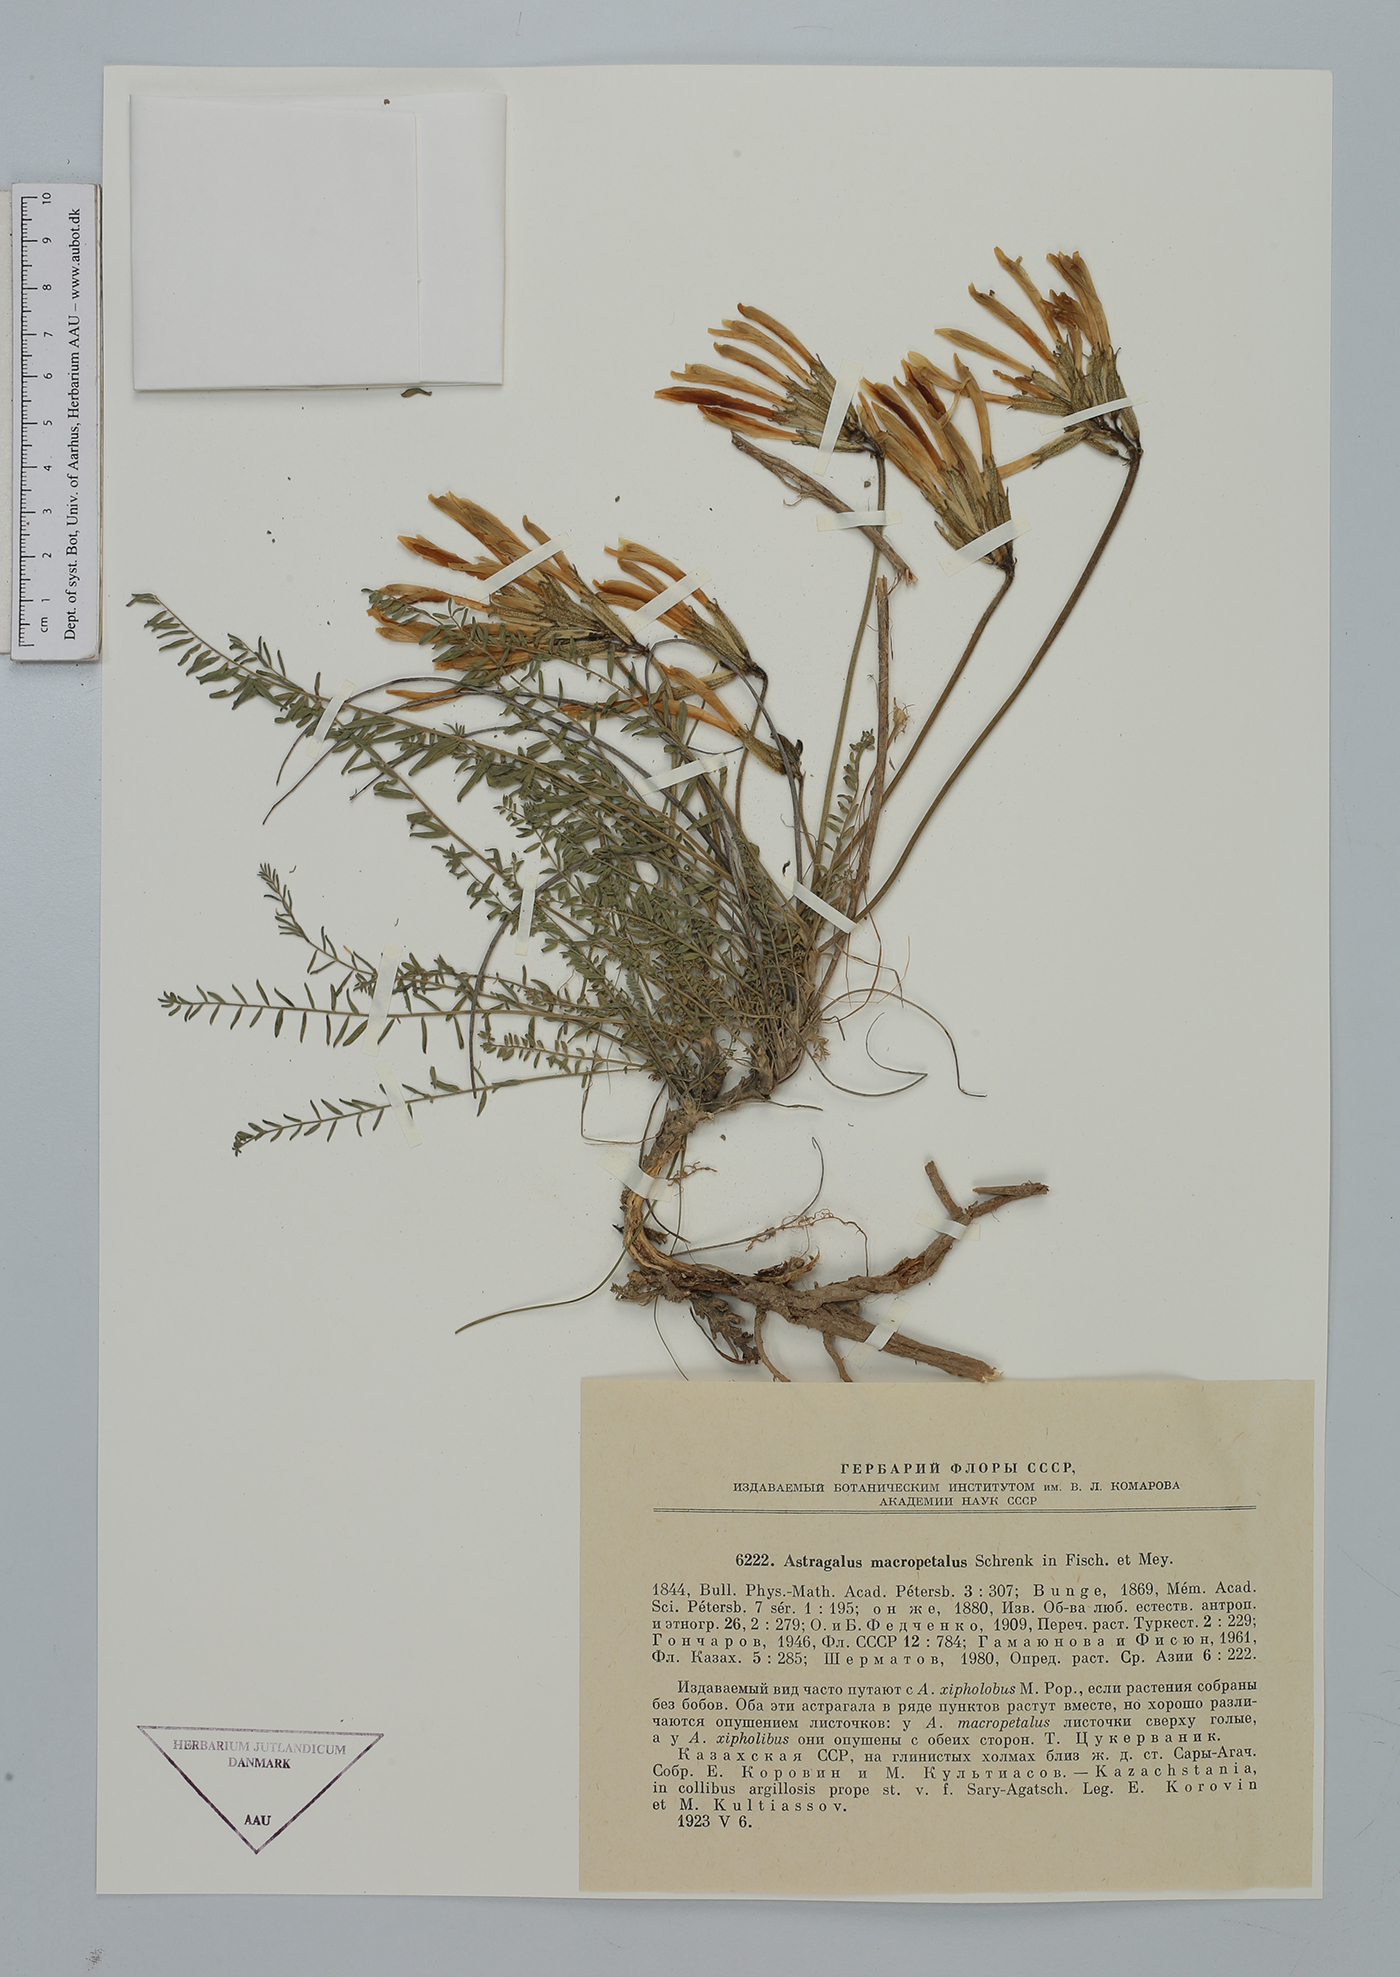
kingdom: Plantae
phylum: Tracheophyta
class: Magnoliopsida
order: Fabales
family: Fabaceae
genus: Astragalus
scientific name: Astragalus macropetalus
